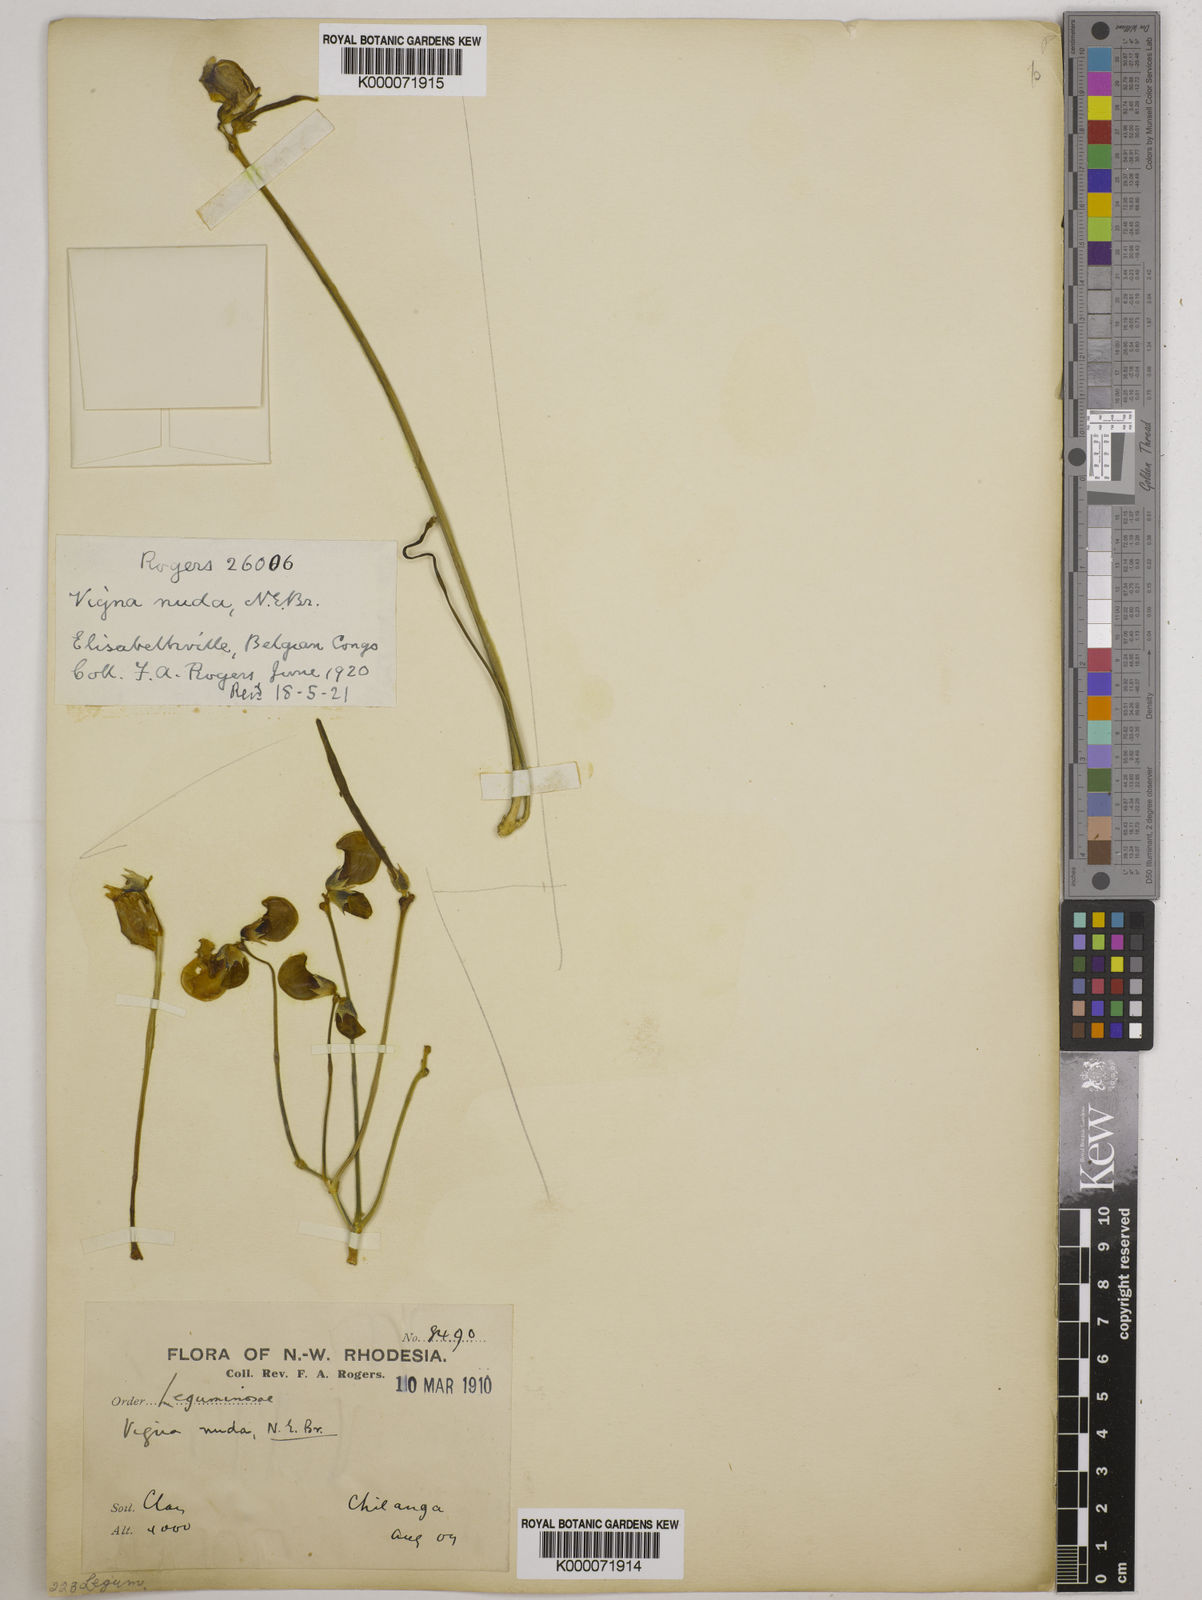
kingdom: Plantae
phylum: Tracheophyta
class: Magnoliopsida
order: Fabales
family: Fabaceae
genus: Vigna
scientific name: Vigna antunesii
